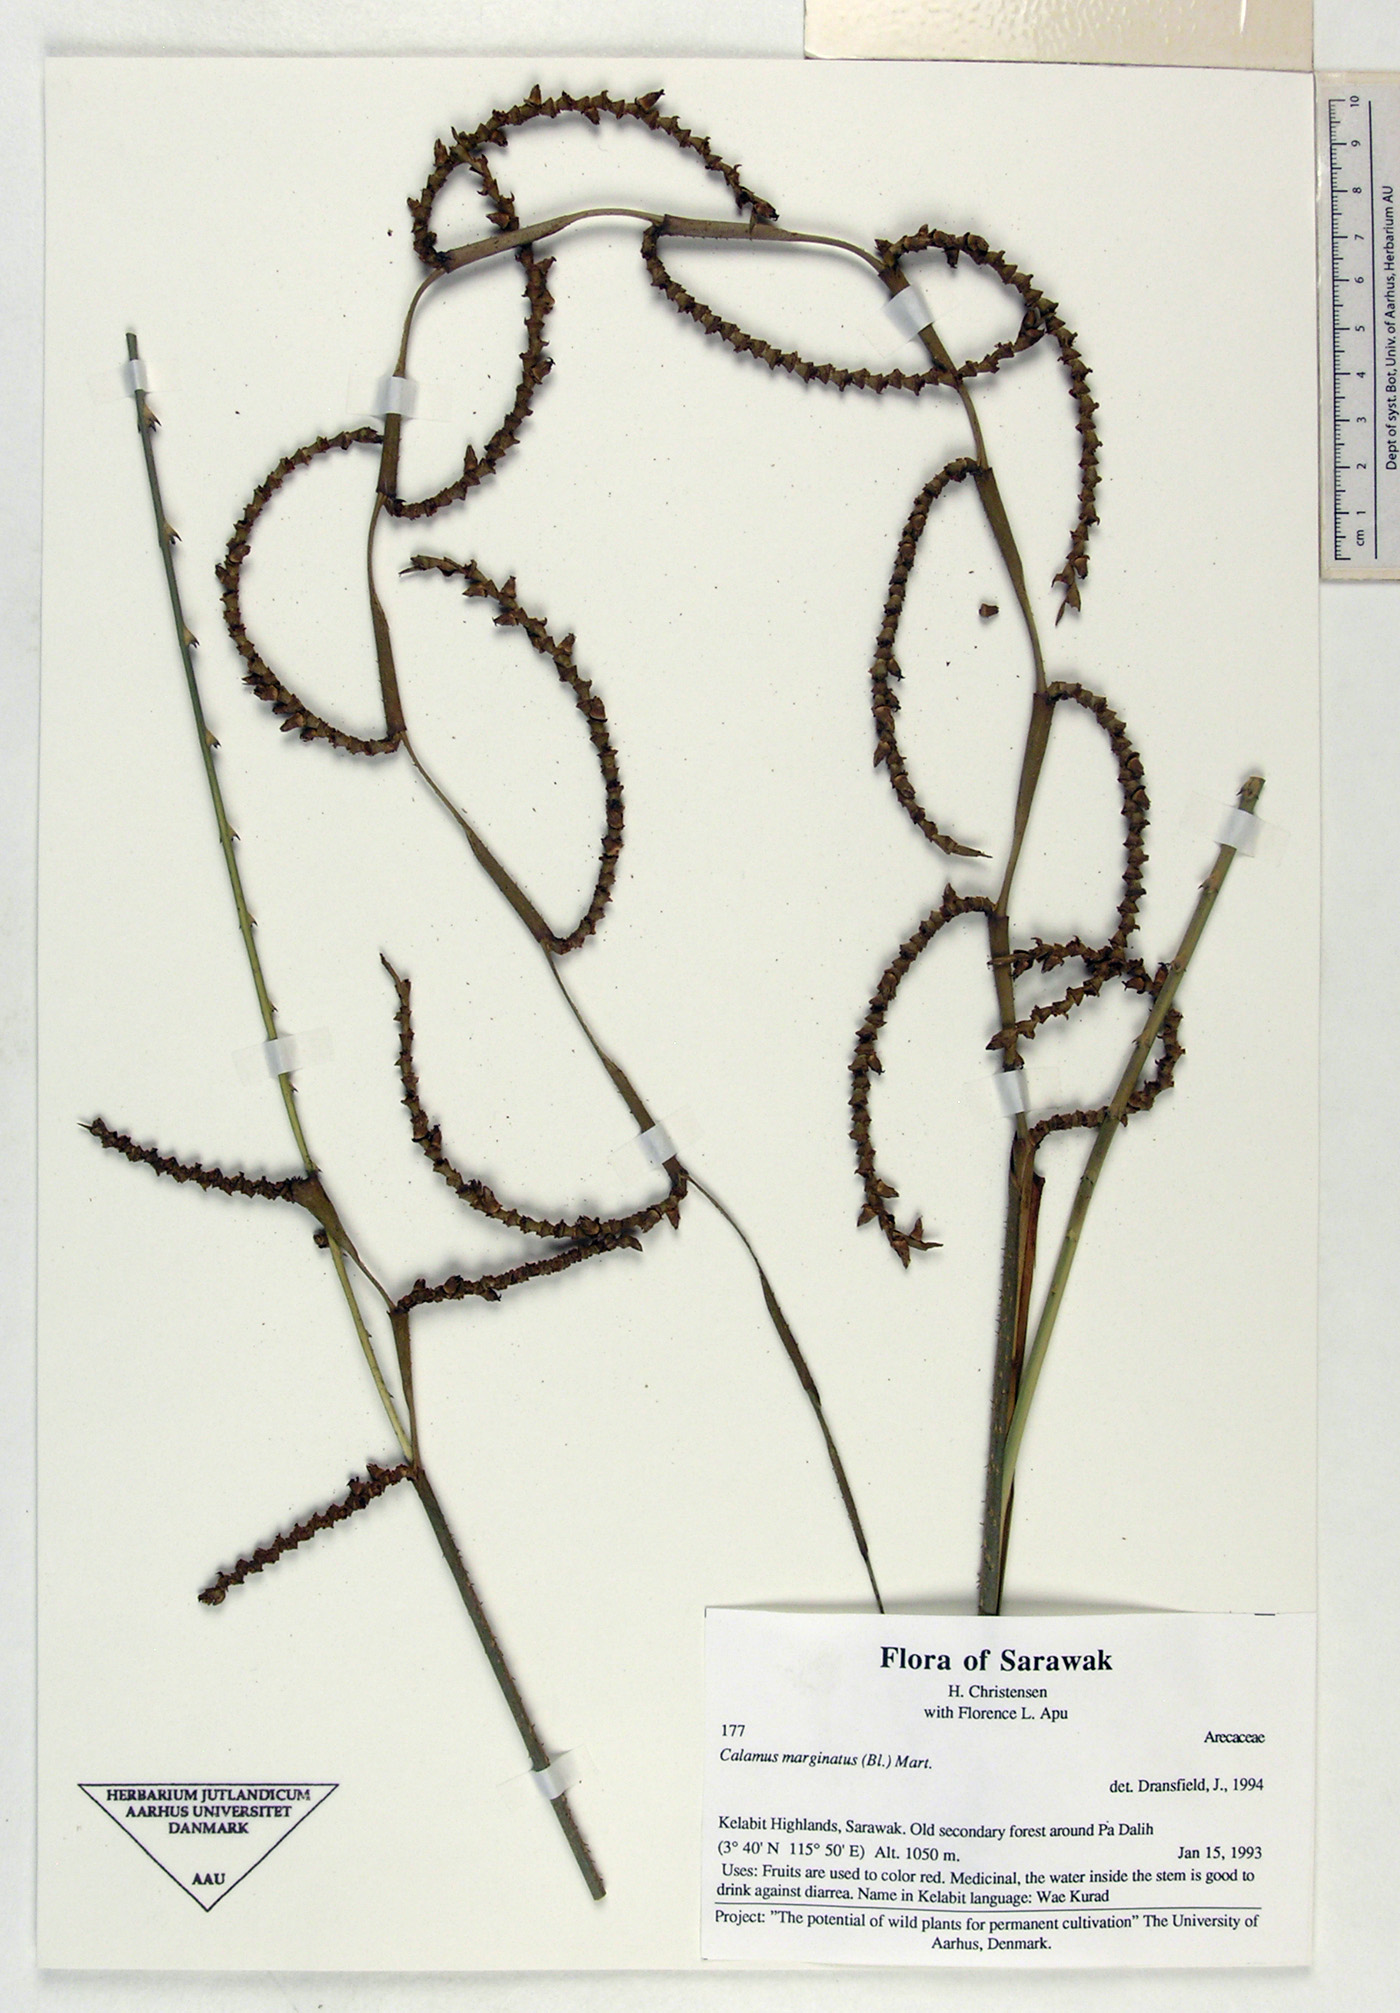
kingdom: Plantae
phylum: Tracheophyta
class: Liliopsida
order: Arecales
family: Arecaceae
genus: Calamus
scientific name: Calamus marginatus
